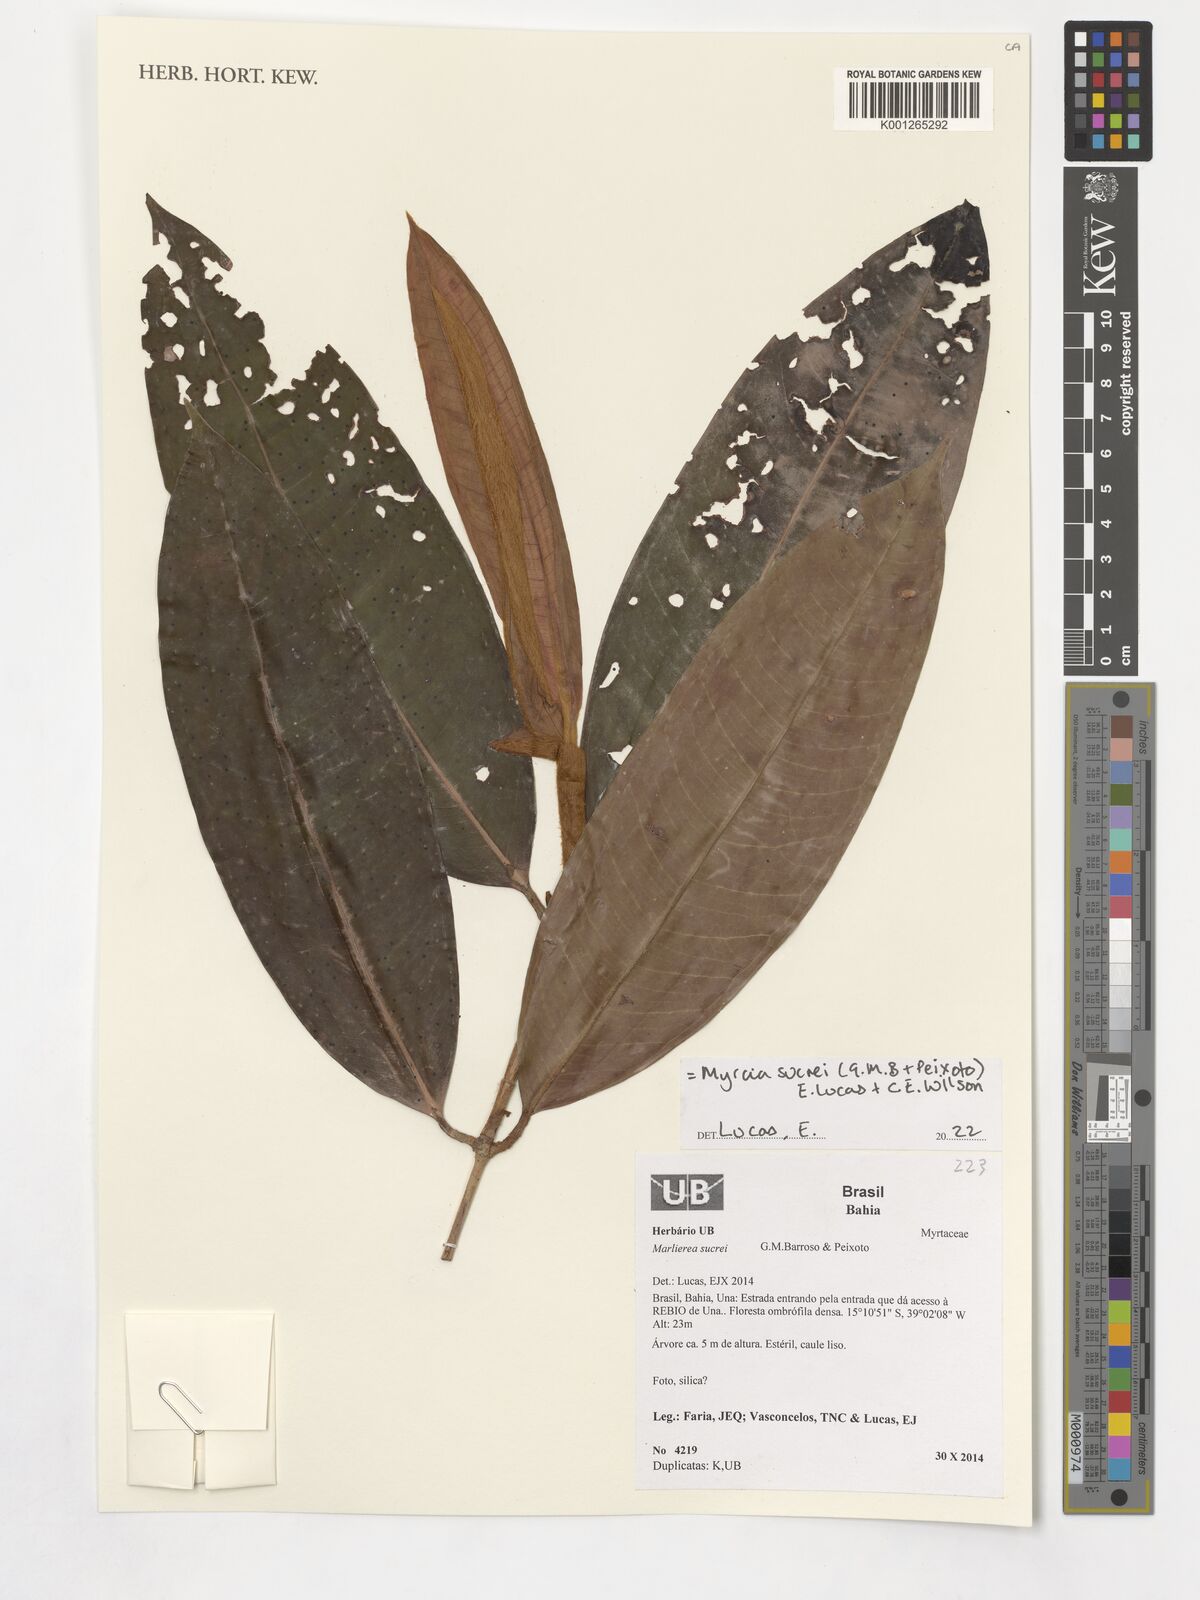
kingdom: Plantae
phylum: Tracheophyta
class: Magnoliopsida
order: Myrtales
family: Myrtaceae
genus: Myrcia
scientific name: Myrcia sucrei
